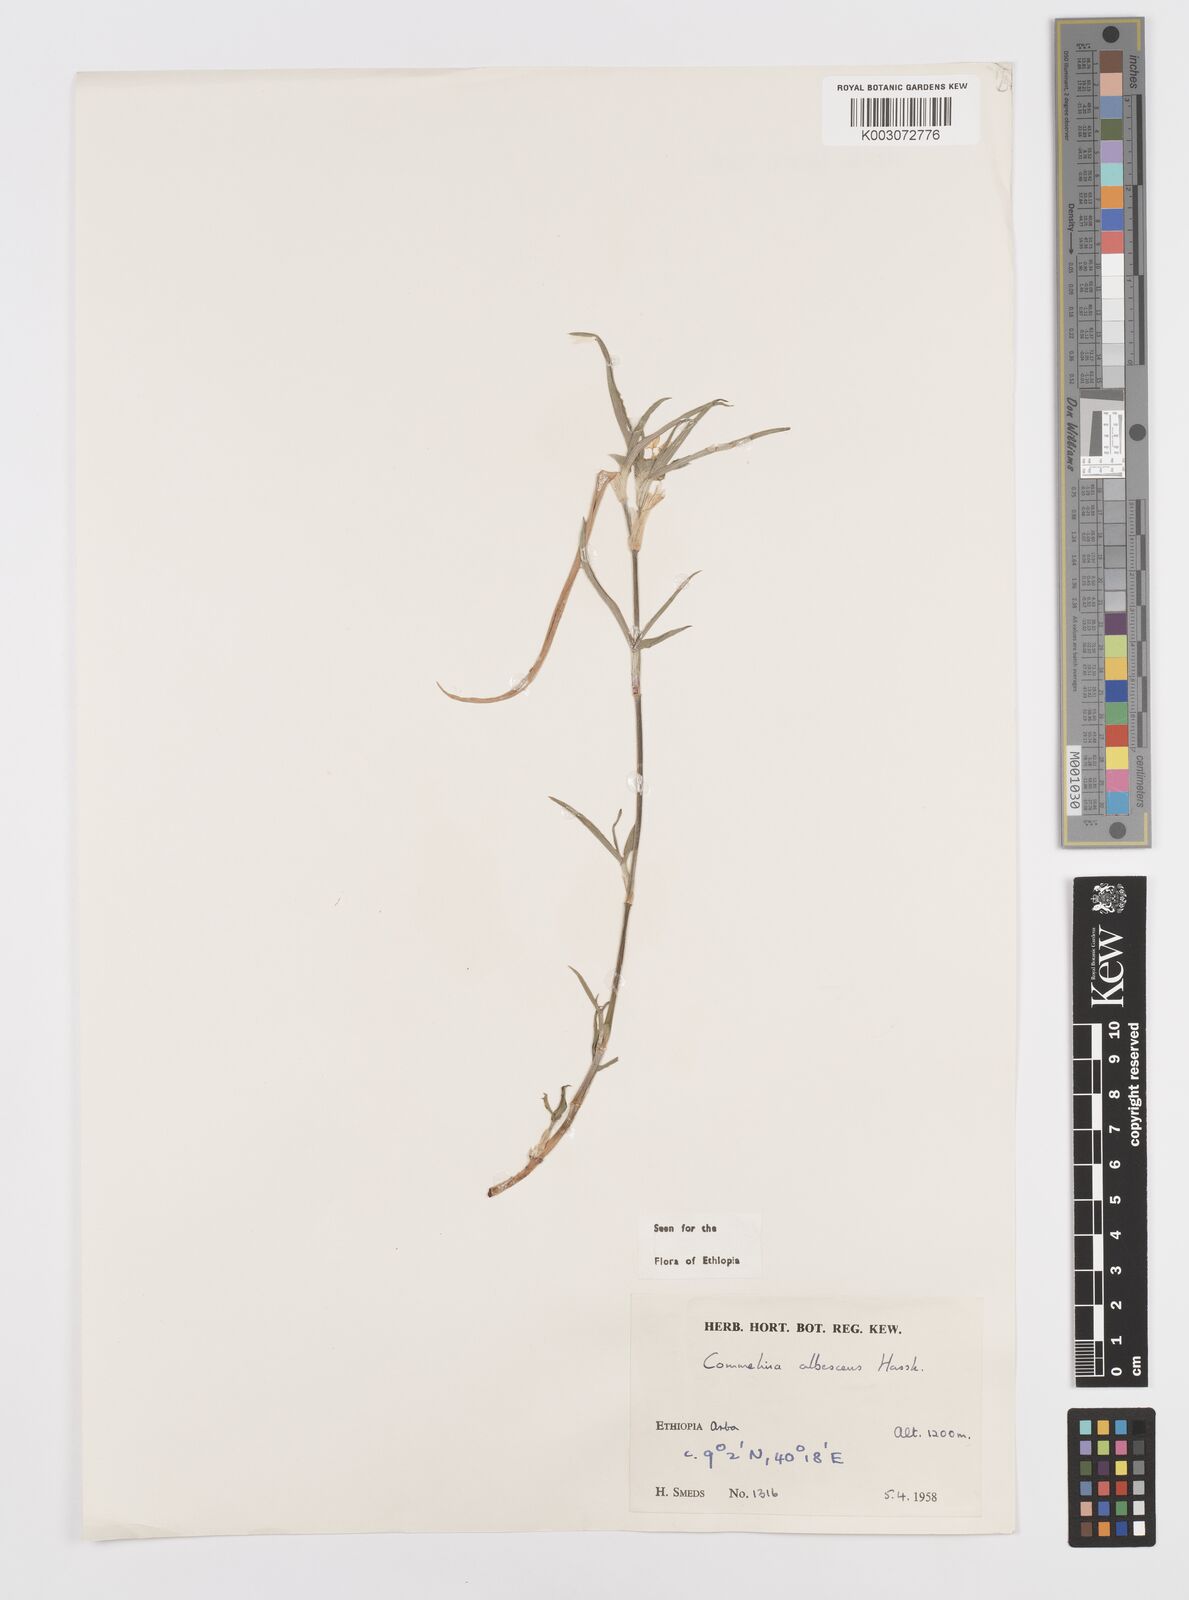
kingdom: Plantae
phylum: Tracheophyta
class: Liliopsida
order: Commelinales
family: Commelinaceae
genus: Commelina
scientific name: Commelina albescens
